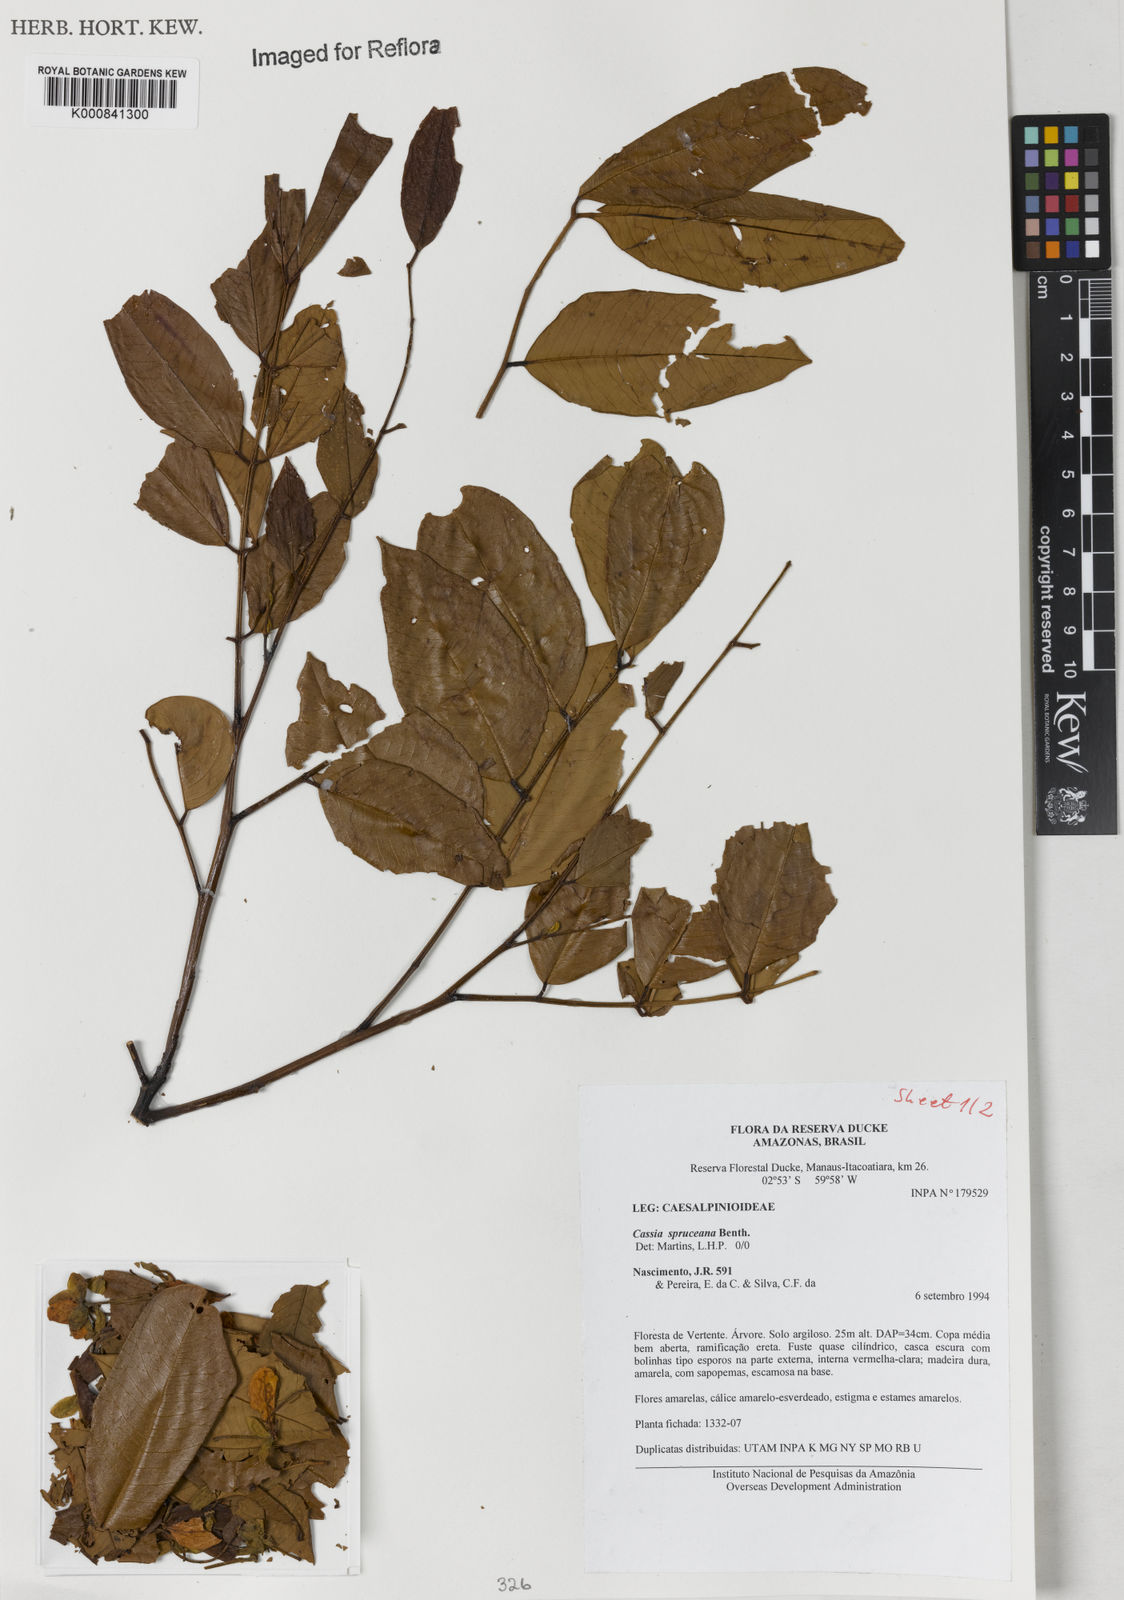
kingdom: Plantae
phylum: Tracheophyta
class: Magnoliopsida
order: Fabales
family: Fabaceae
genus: Cassia
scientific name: Cassia spruceana
